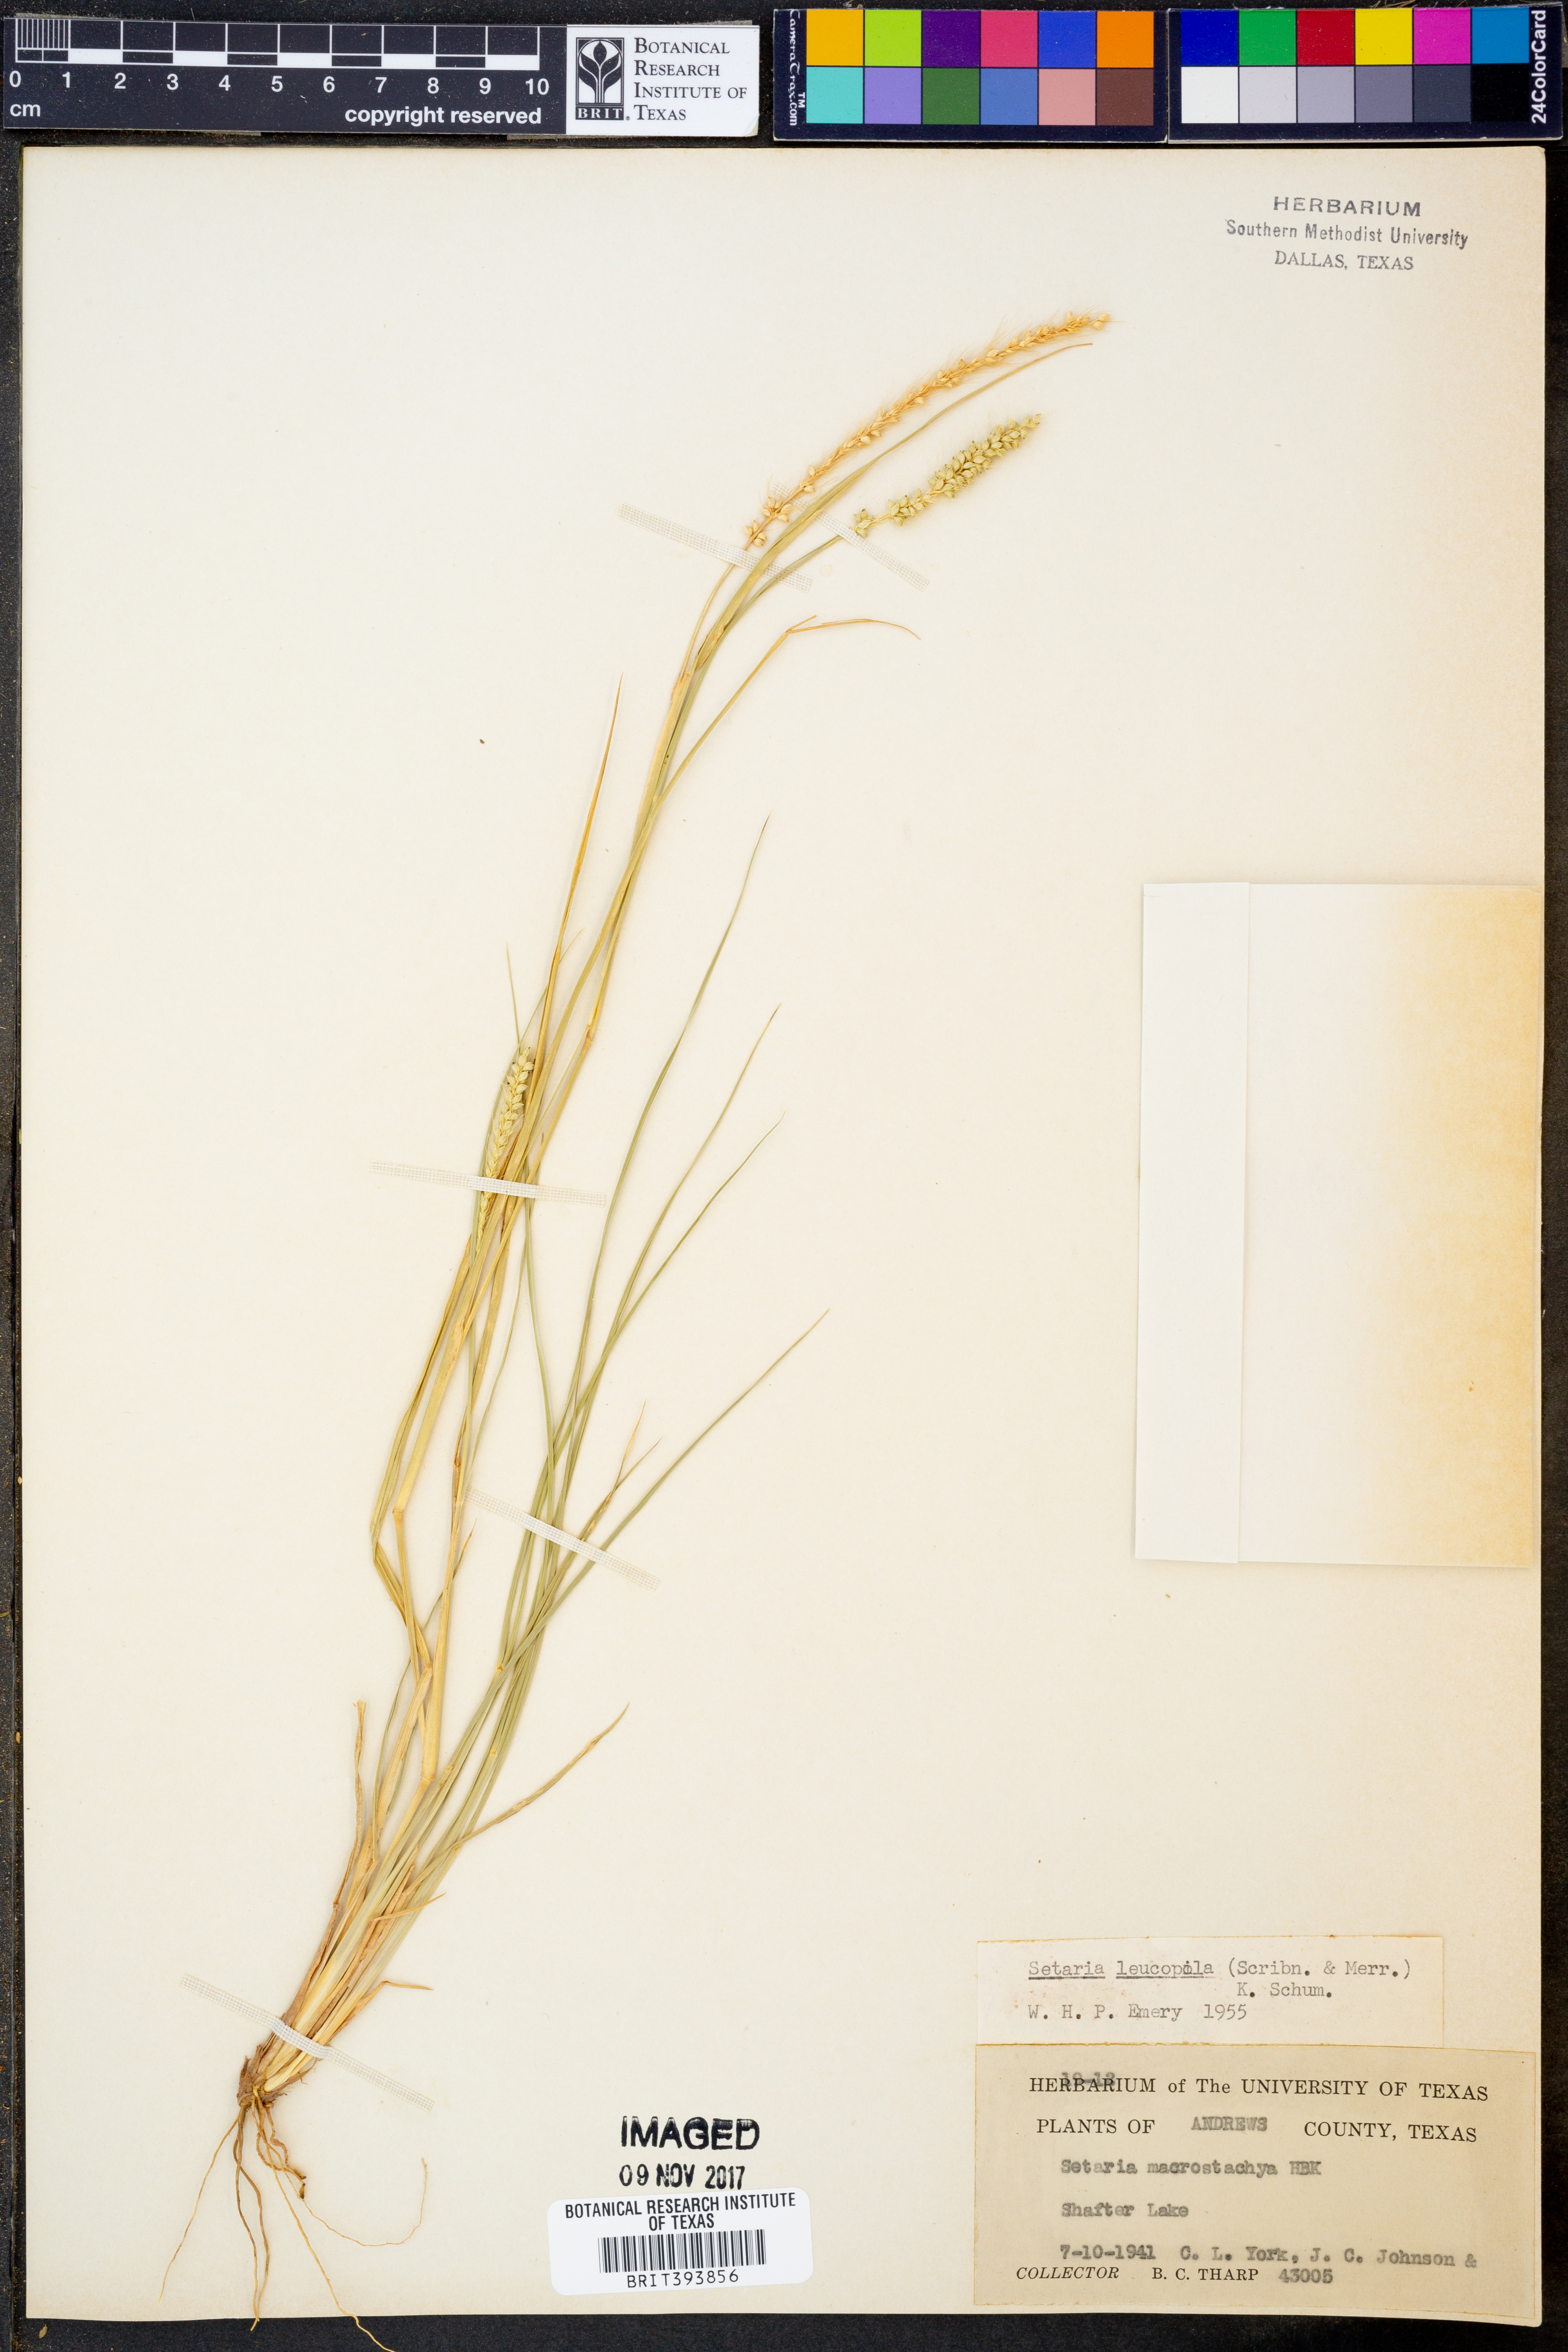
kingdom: Plantae
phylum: Tracheophyta
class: Liliopsida
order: Poales
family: Poaceae
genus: Setaria
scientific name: Setaria macrostachya
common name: Plains bristle grass
